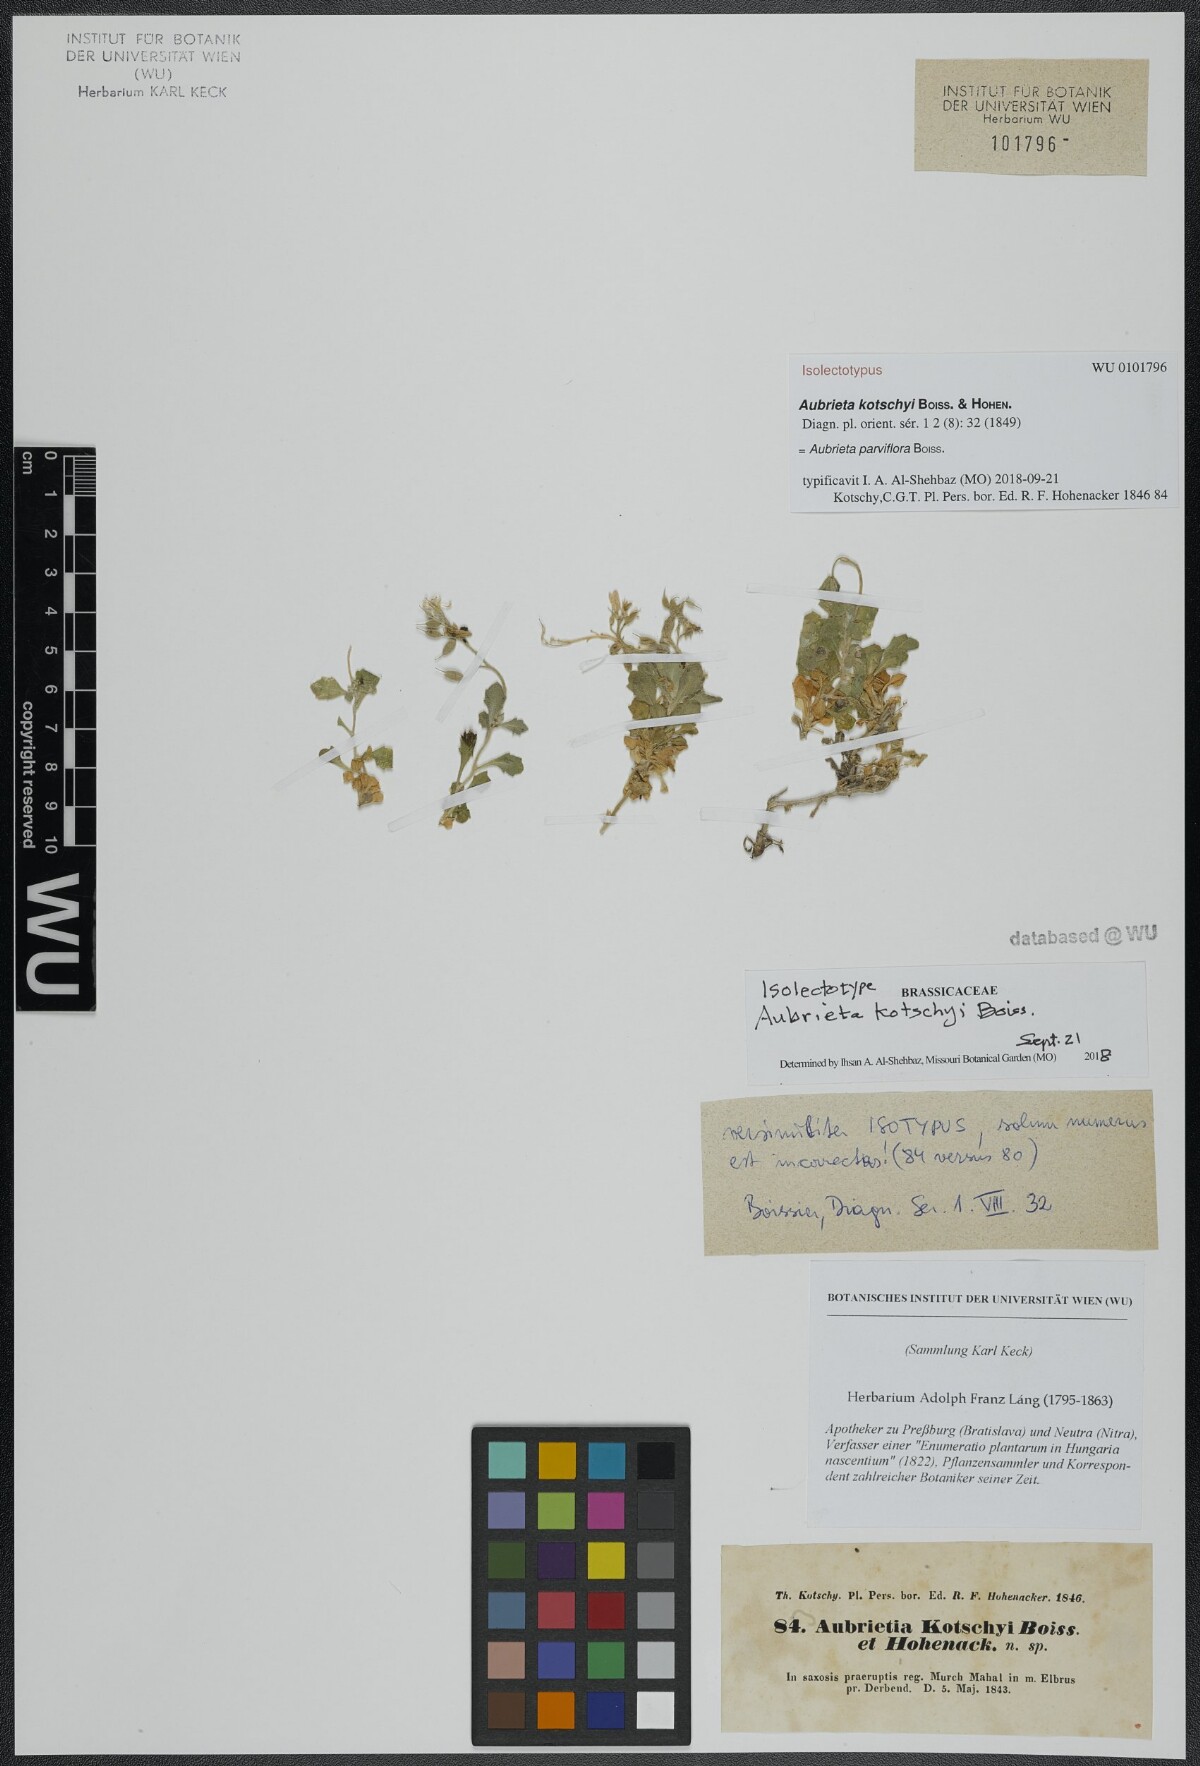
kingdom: Plantae
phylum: Tracheophyta
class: Magnoliopsida
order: Brassicales
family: Brassicaceae
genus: Aubrieta
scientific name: Aubrieta parviflora
